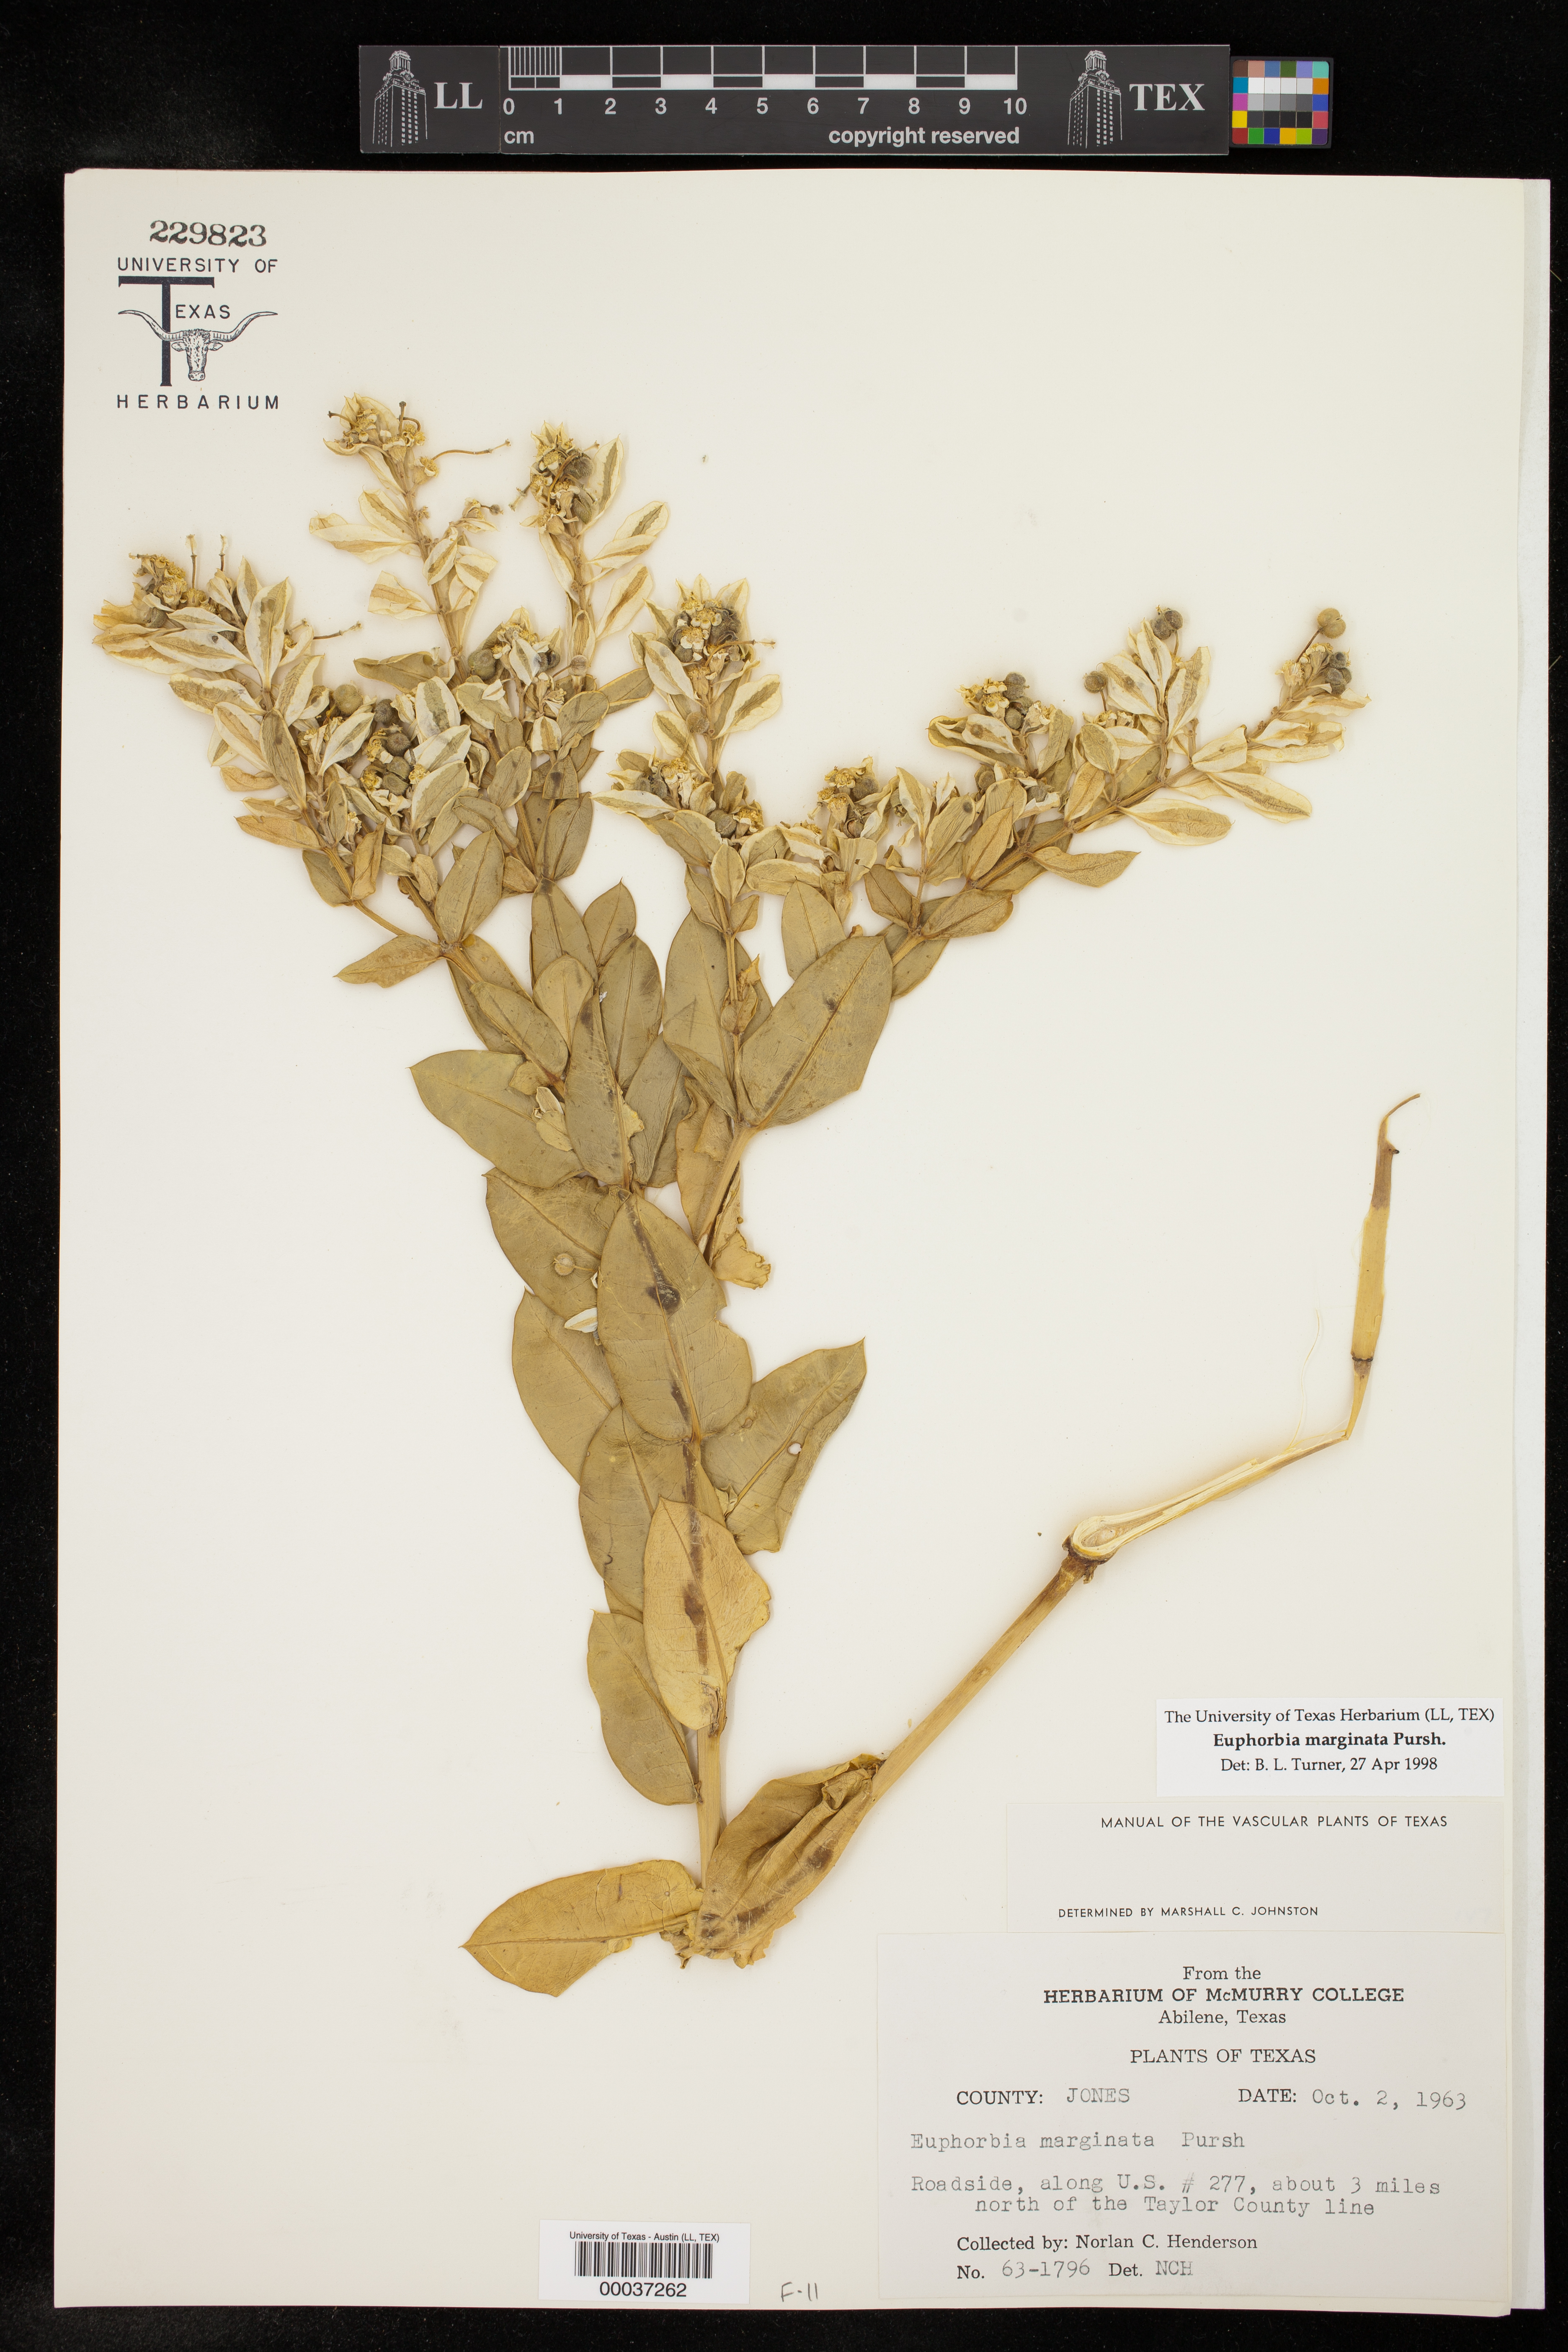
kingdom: Plantae
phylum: Tracheophyta
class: Magnoliopsida
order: Malpighiales
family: Euphorbiaceae
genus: Euphorbia
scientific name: Euphorbia marginata
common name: Ghostweed
